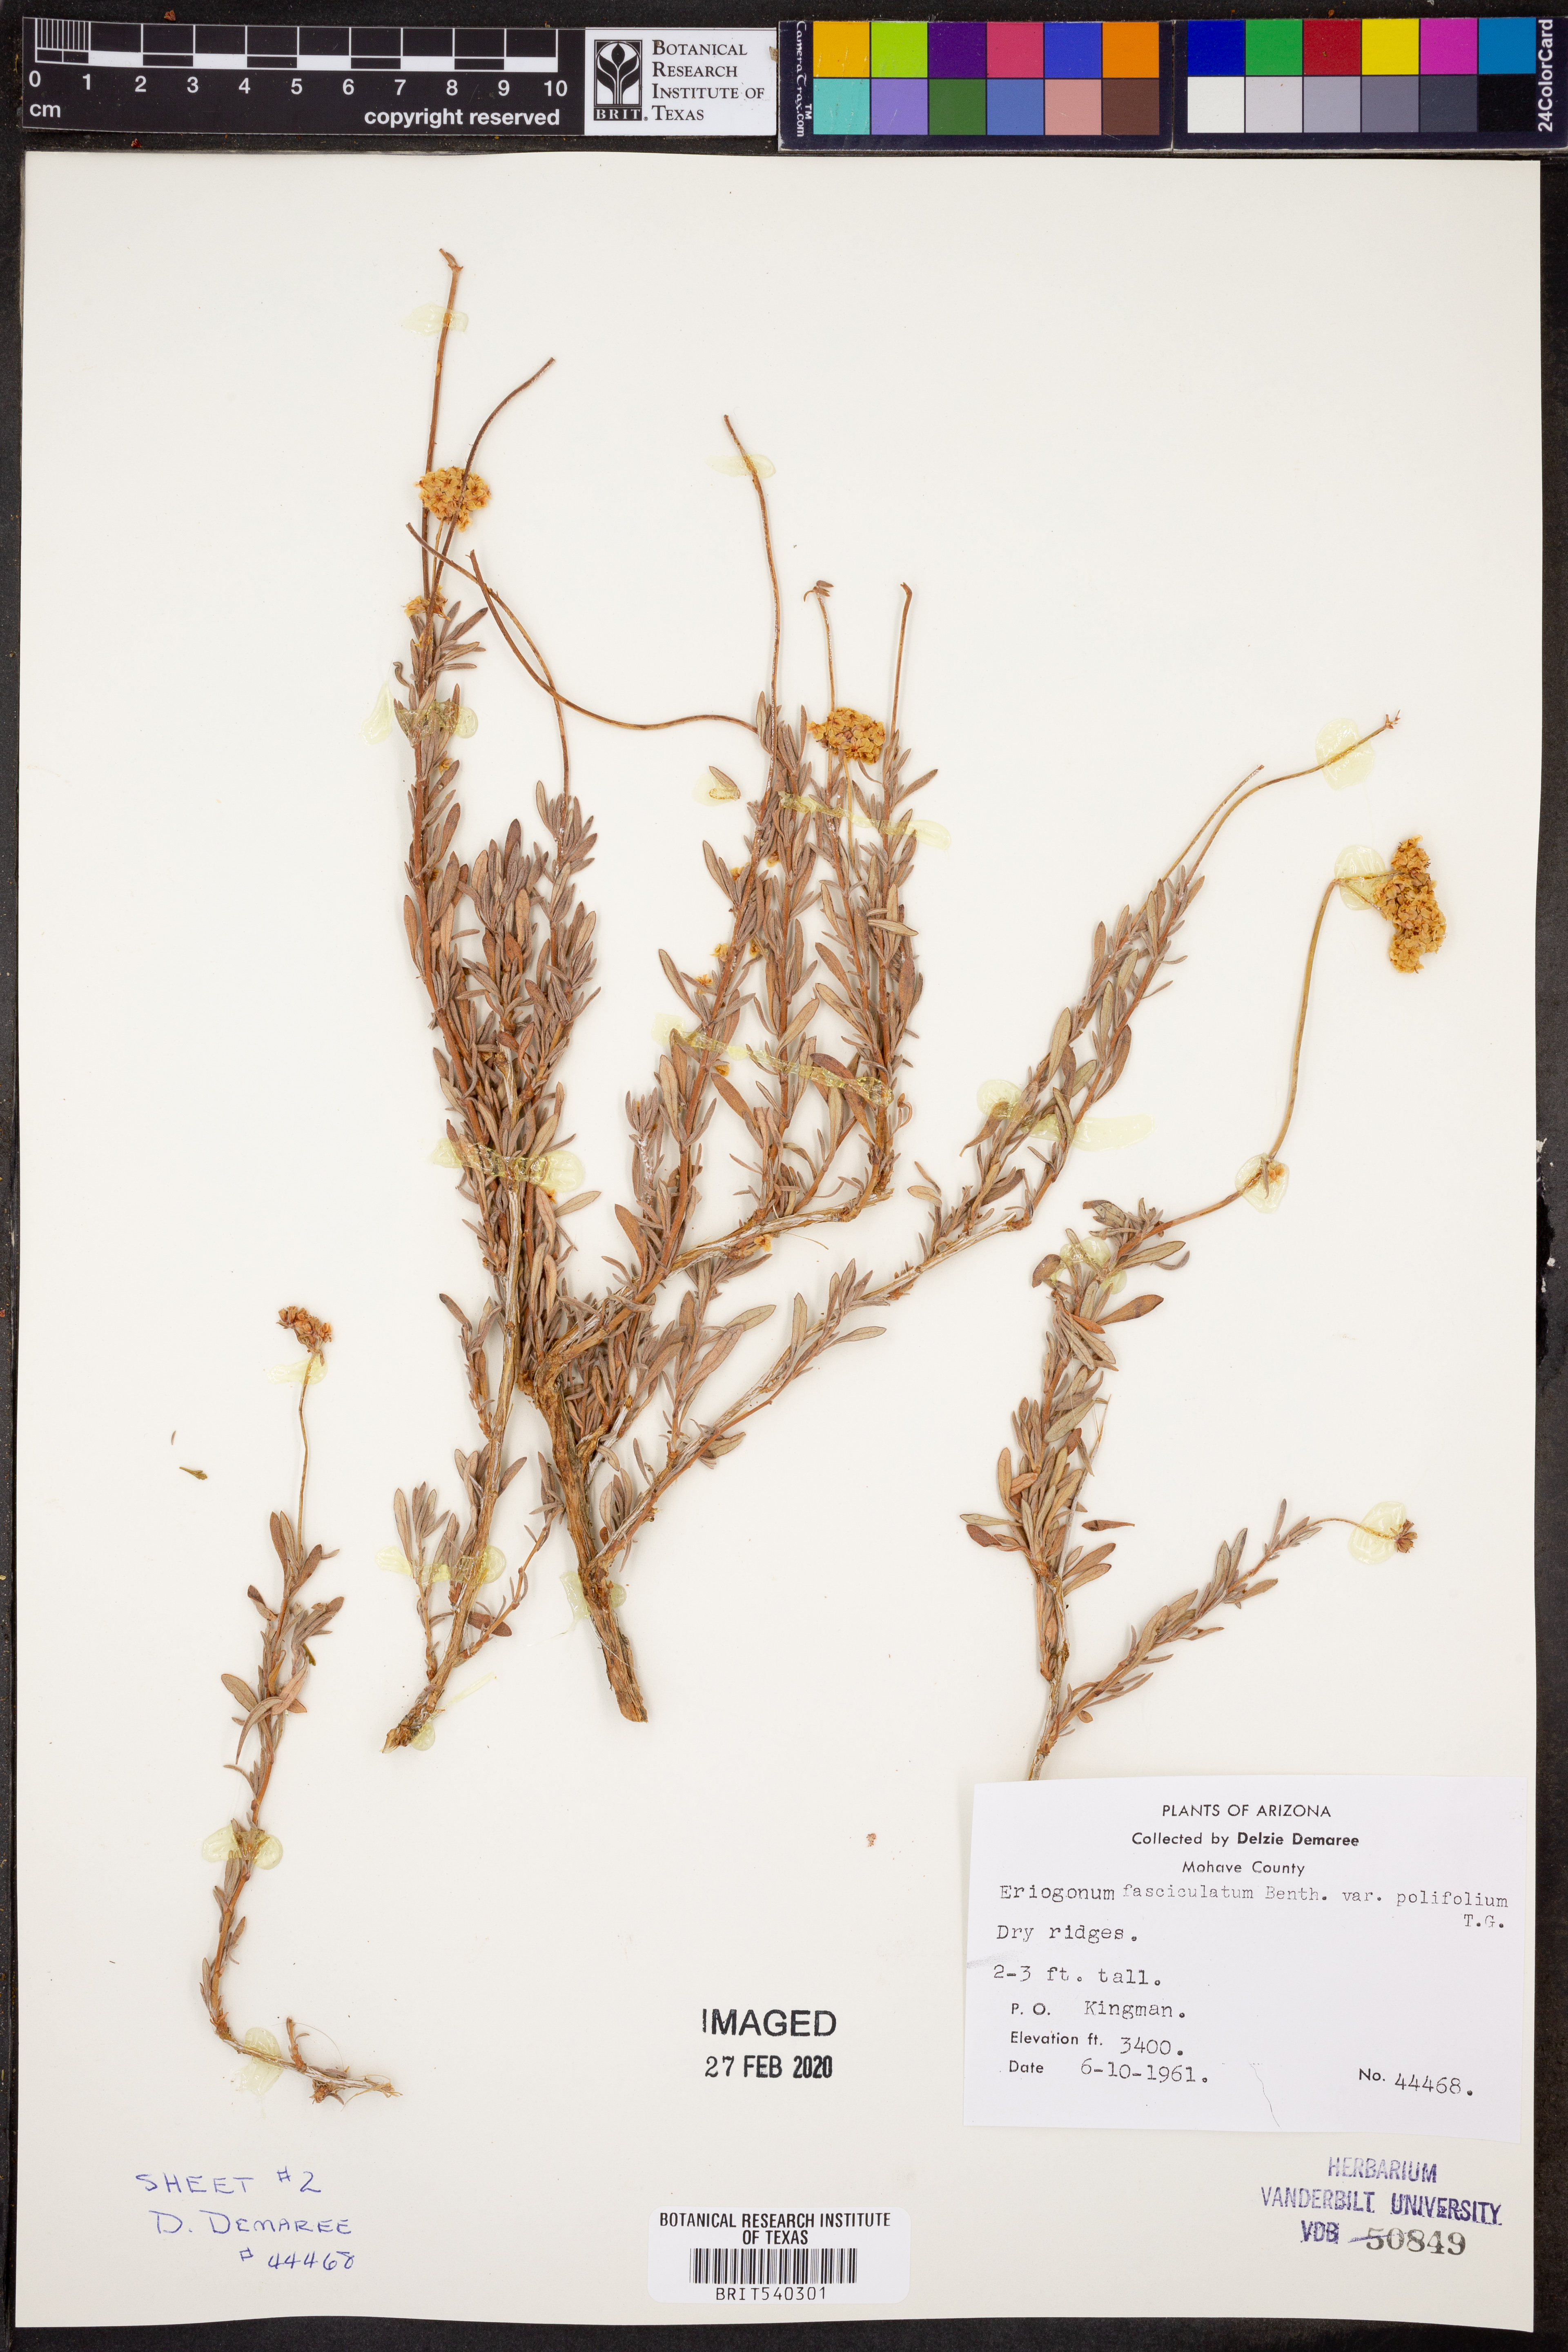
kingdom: Plantae
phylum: Tracheophyta
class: Magnoliopsida
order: Caryophyllales
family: Polygonaceae
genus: Eriogonum
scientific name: Eriogonum fasciculatum
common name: California wild buckwheat
